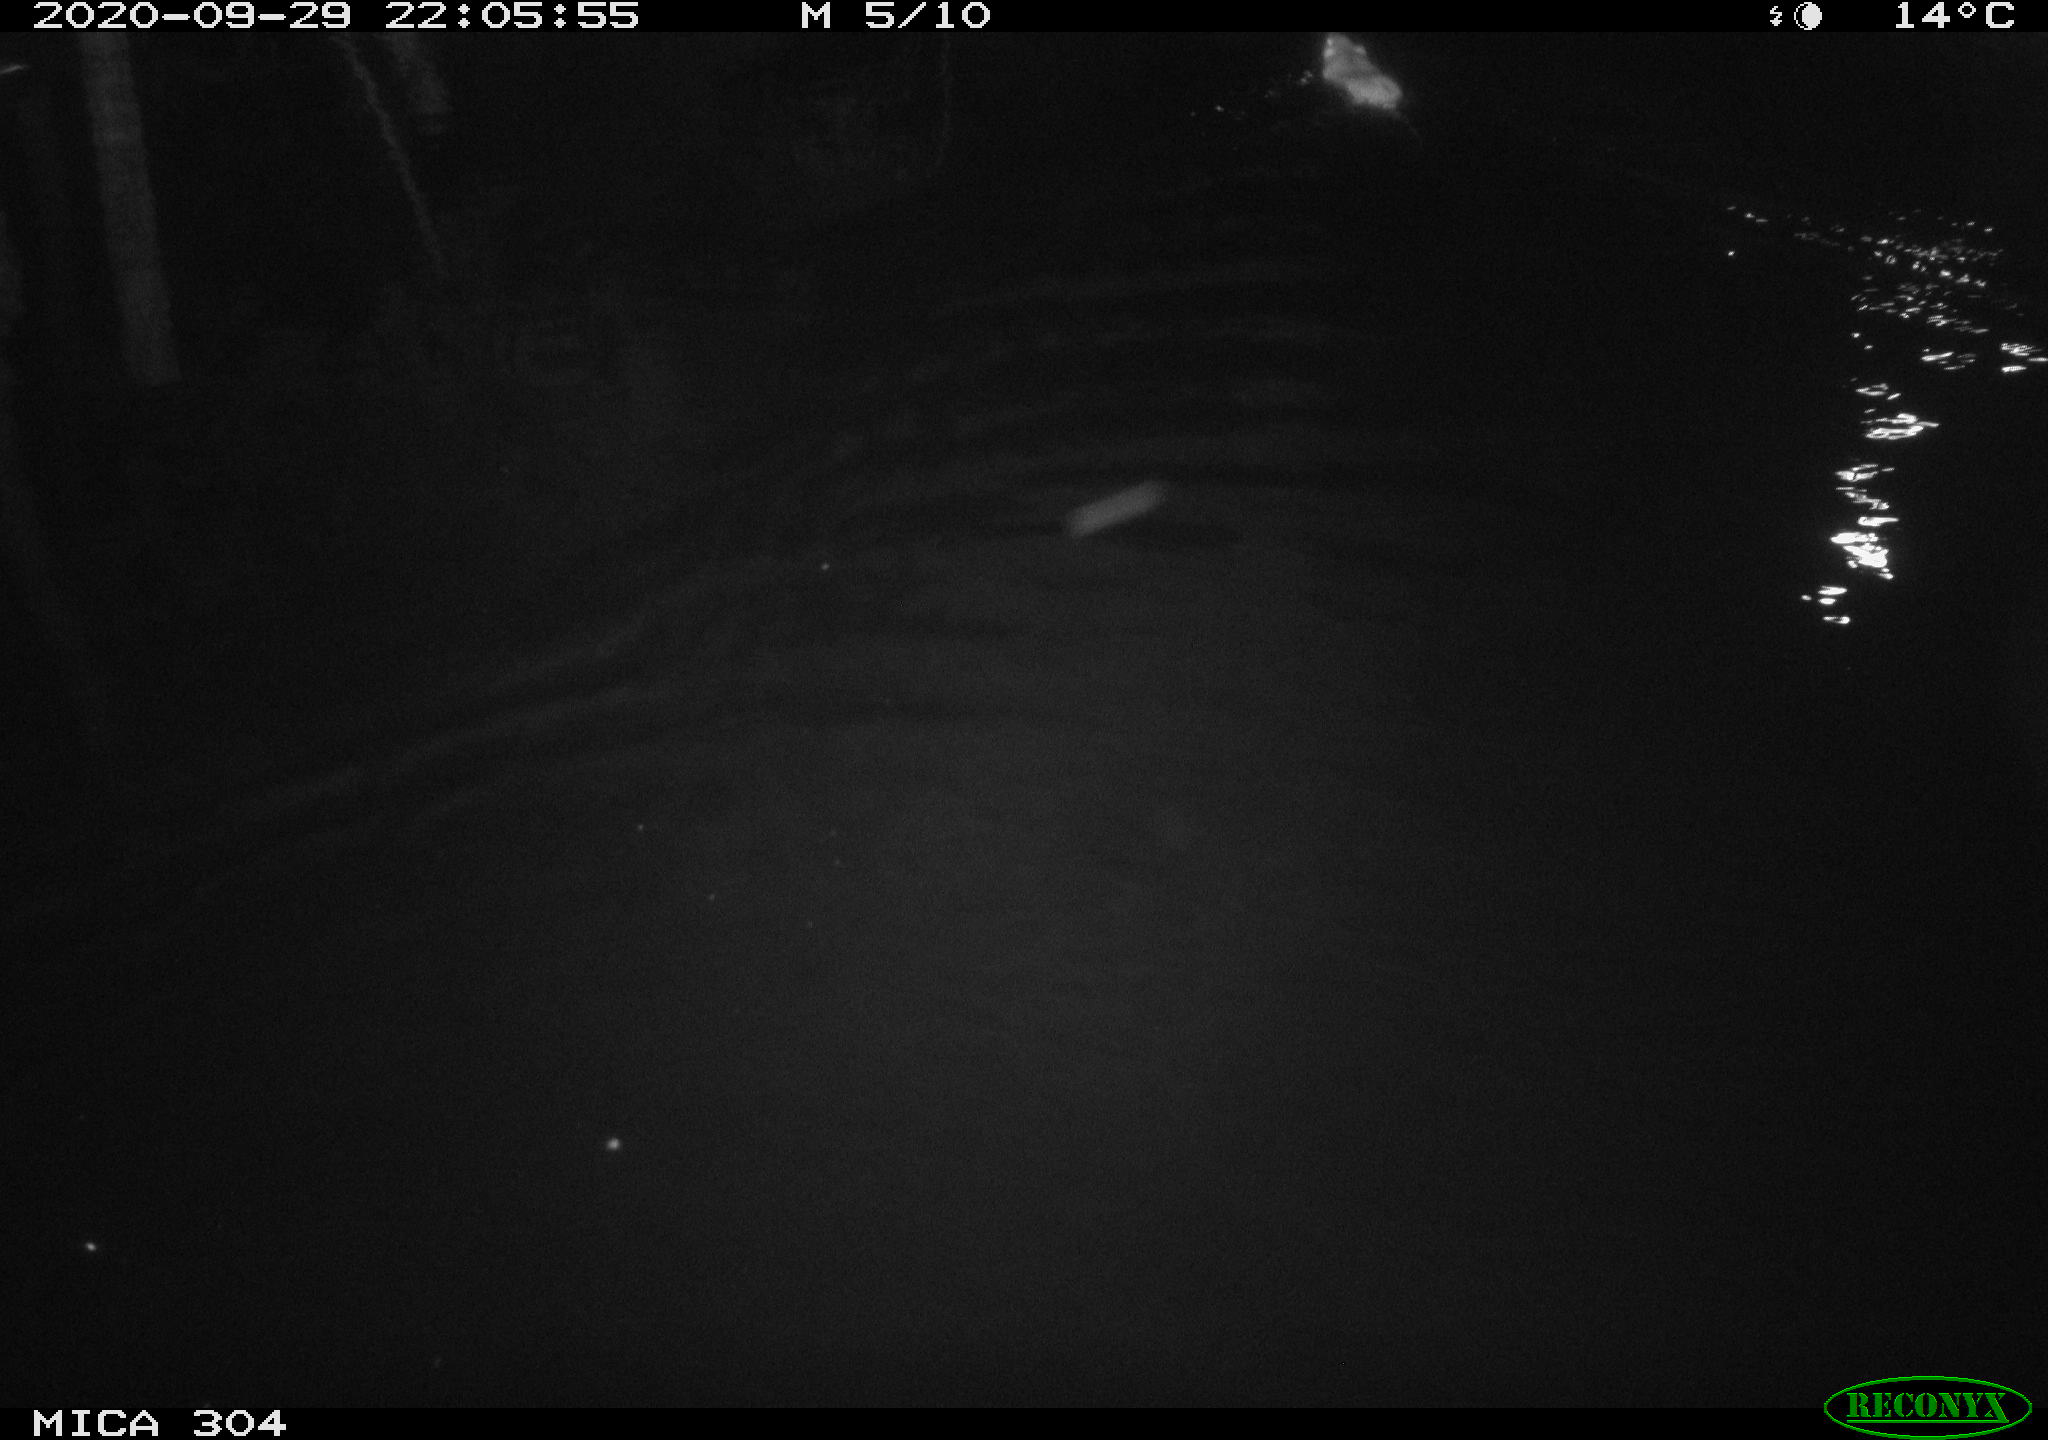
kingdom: Animalia
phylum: Chordata
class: Mammalia
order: Rodentia
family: Muridae
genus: Rattus
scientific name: Rattus norvegicus
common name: Brown rat
